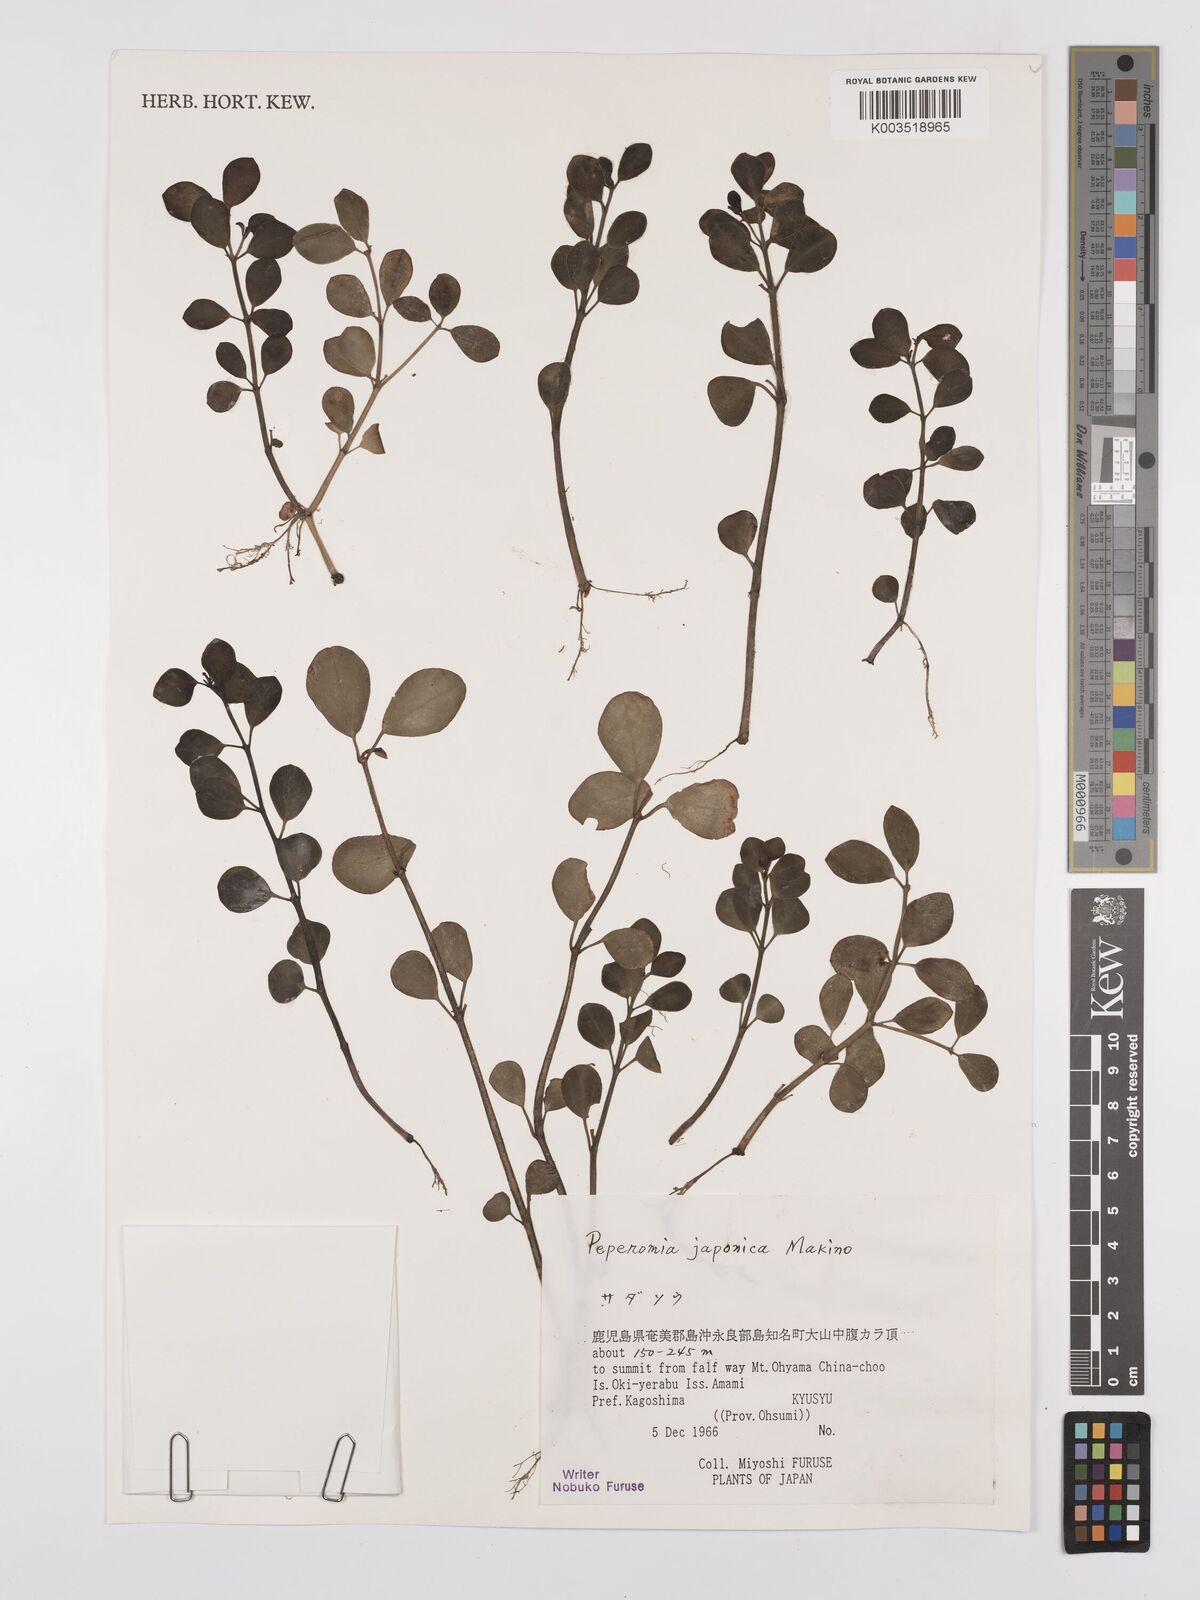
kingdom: Plantae
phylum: Tracheophyta
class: Magnoliopsida
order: Piperales
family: Piperaceae
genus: Peperomia
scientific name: Peperomia japonica
